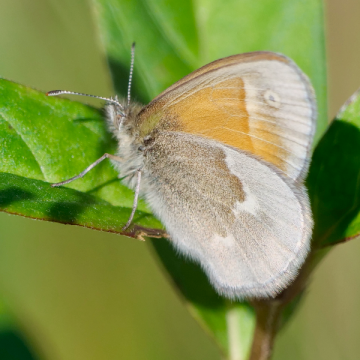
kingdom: Animalia
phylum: Arthropoda
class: Insecta
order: Lepidoptera
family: Nymphalidae
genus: Coenonympha
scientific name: Coenonympha california
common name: California Ringlet
